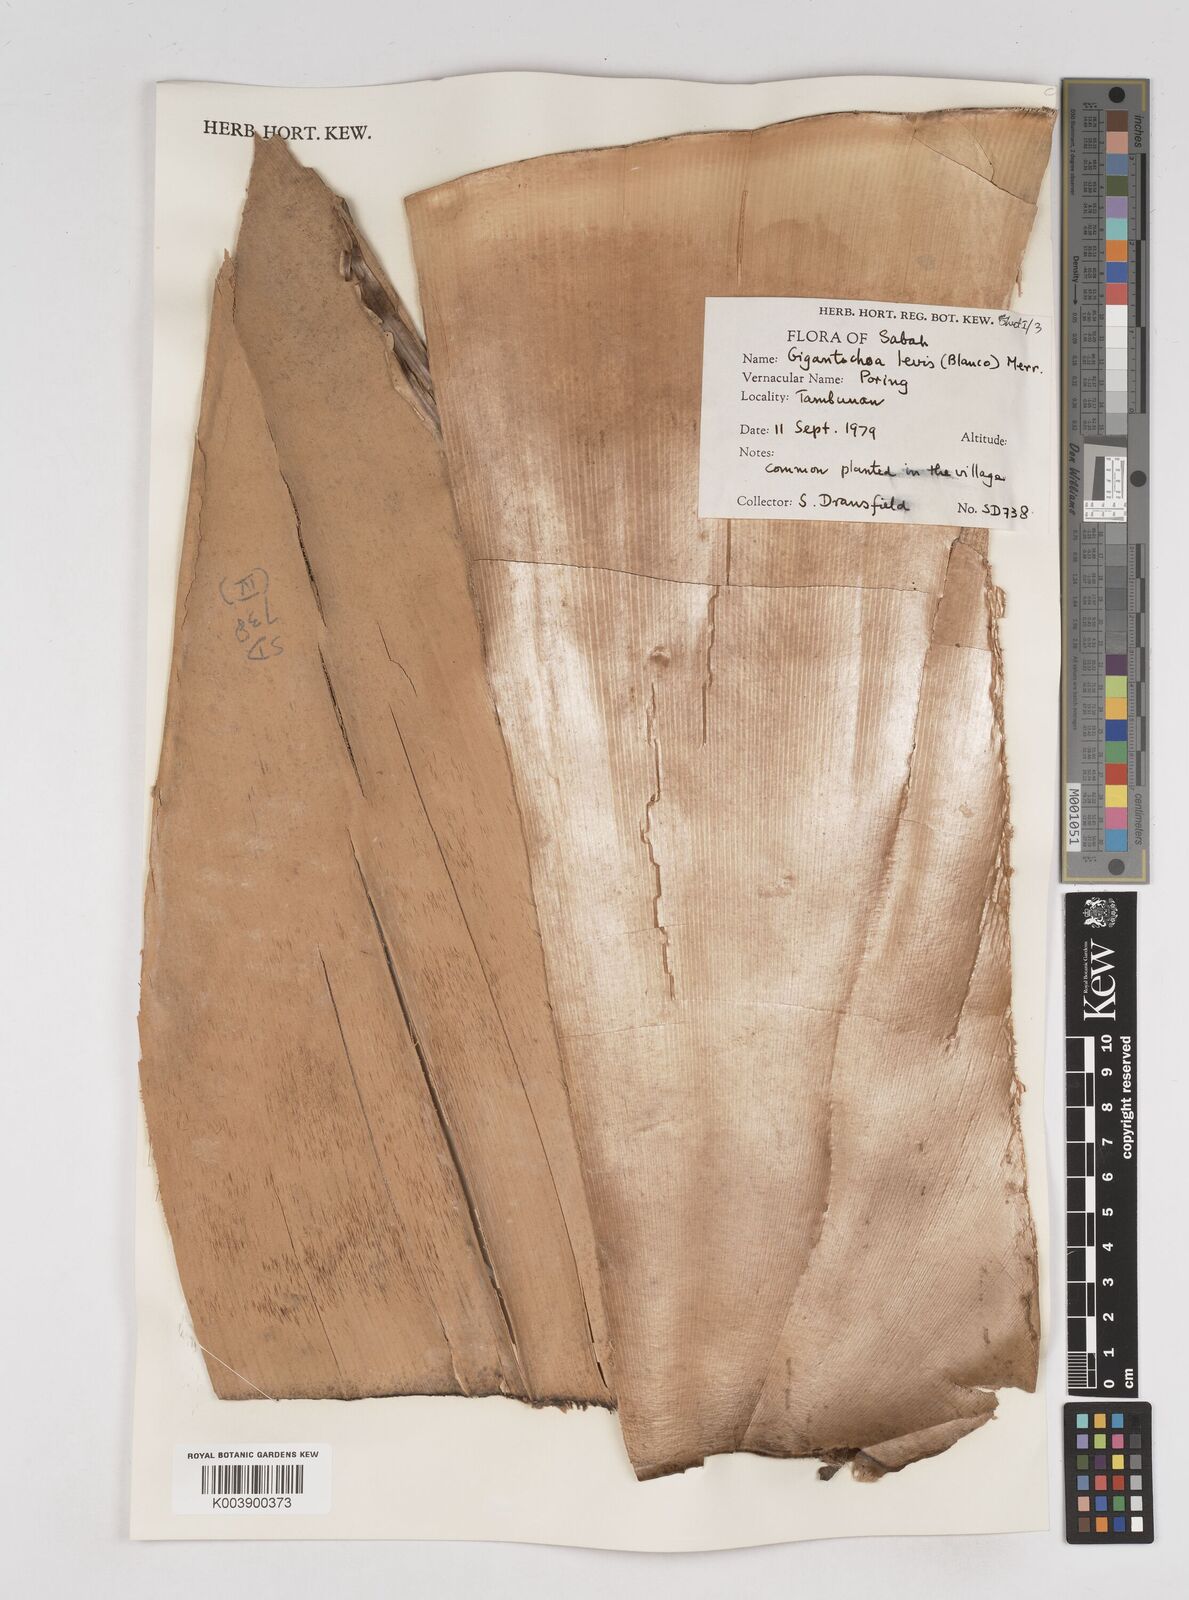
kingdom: Plantae
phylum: Tracheophyta
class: Liliopsida
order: Poales
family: Poaceae
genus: Gigantochloa
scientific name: Gigantochloa levis
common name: Smooth-shoot gigantochloa
